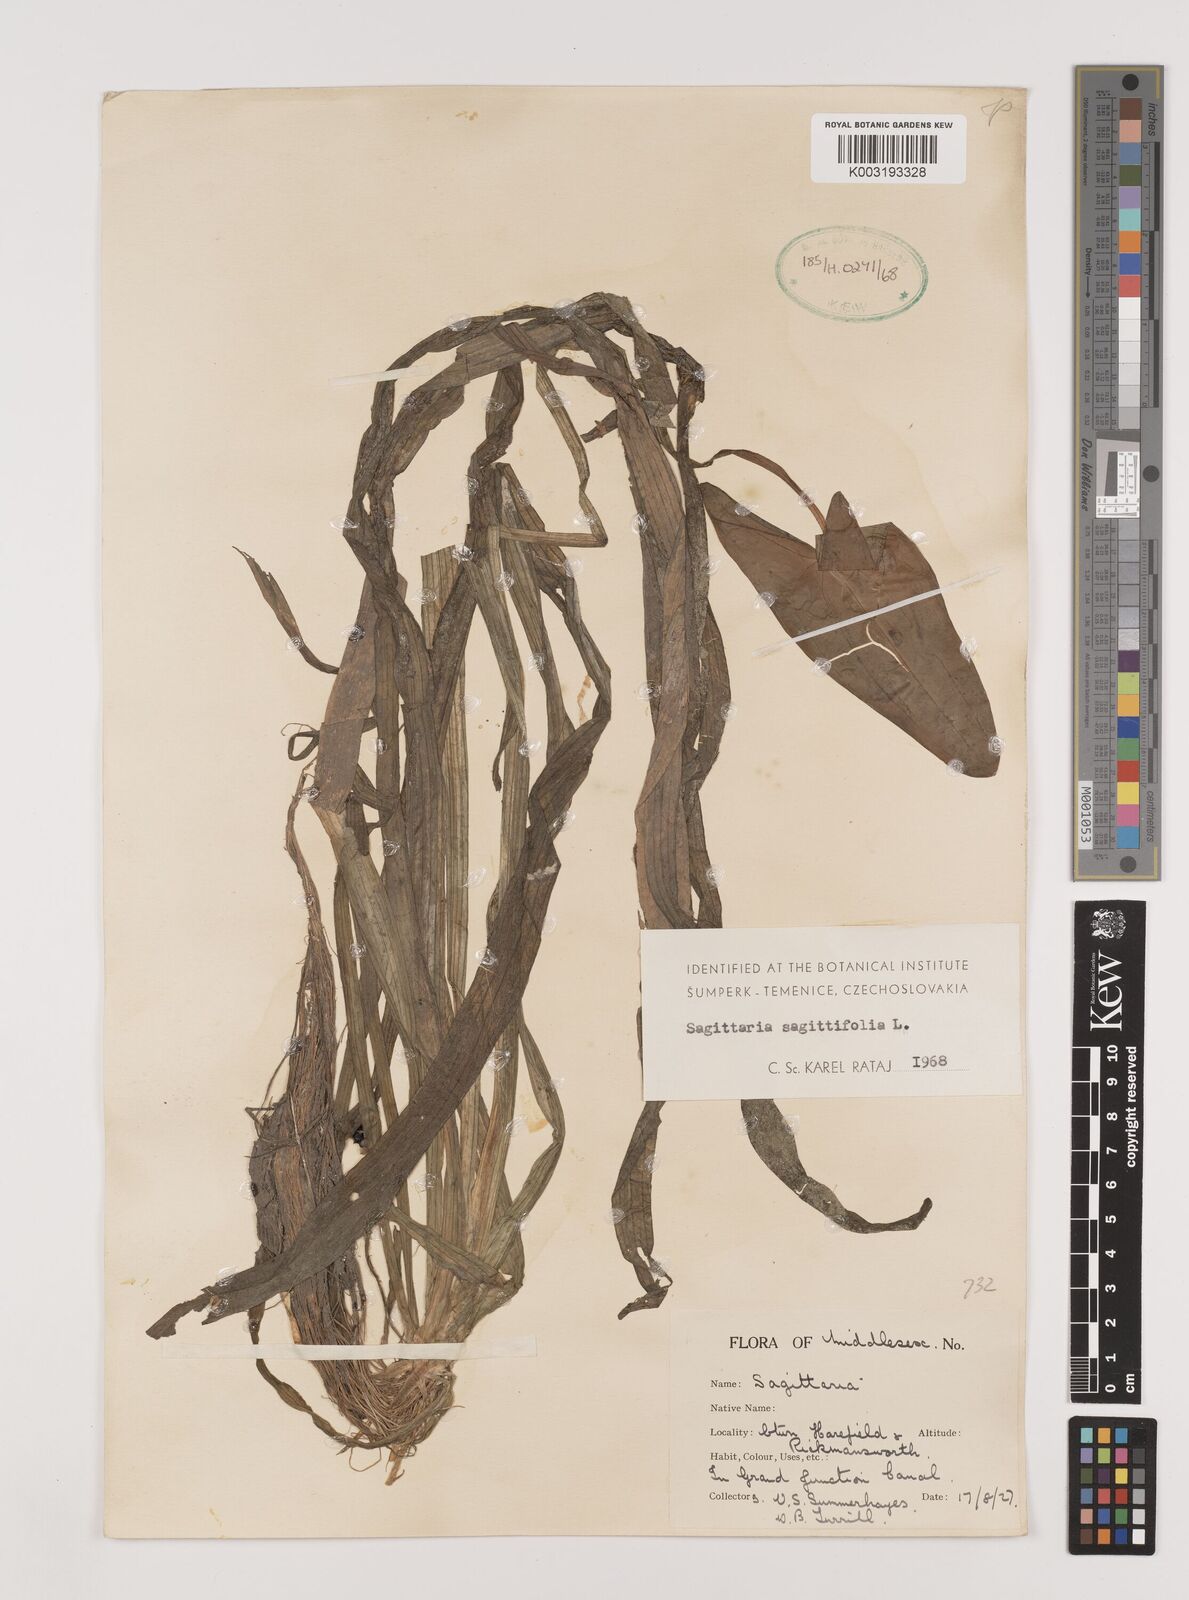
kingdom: Plantae
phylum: Tracheophyta
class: Liliopsida
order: Alismatales
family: Alismataceae
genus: Sagittaria
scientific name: Sagittaria sagittifolia
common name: Arrowhead
